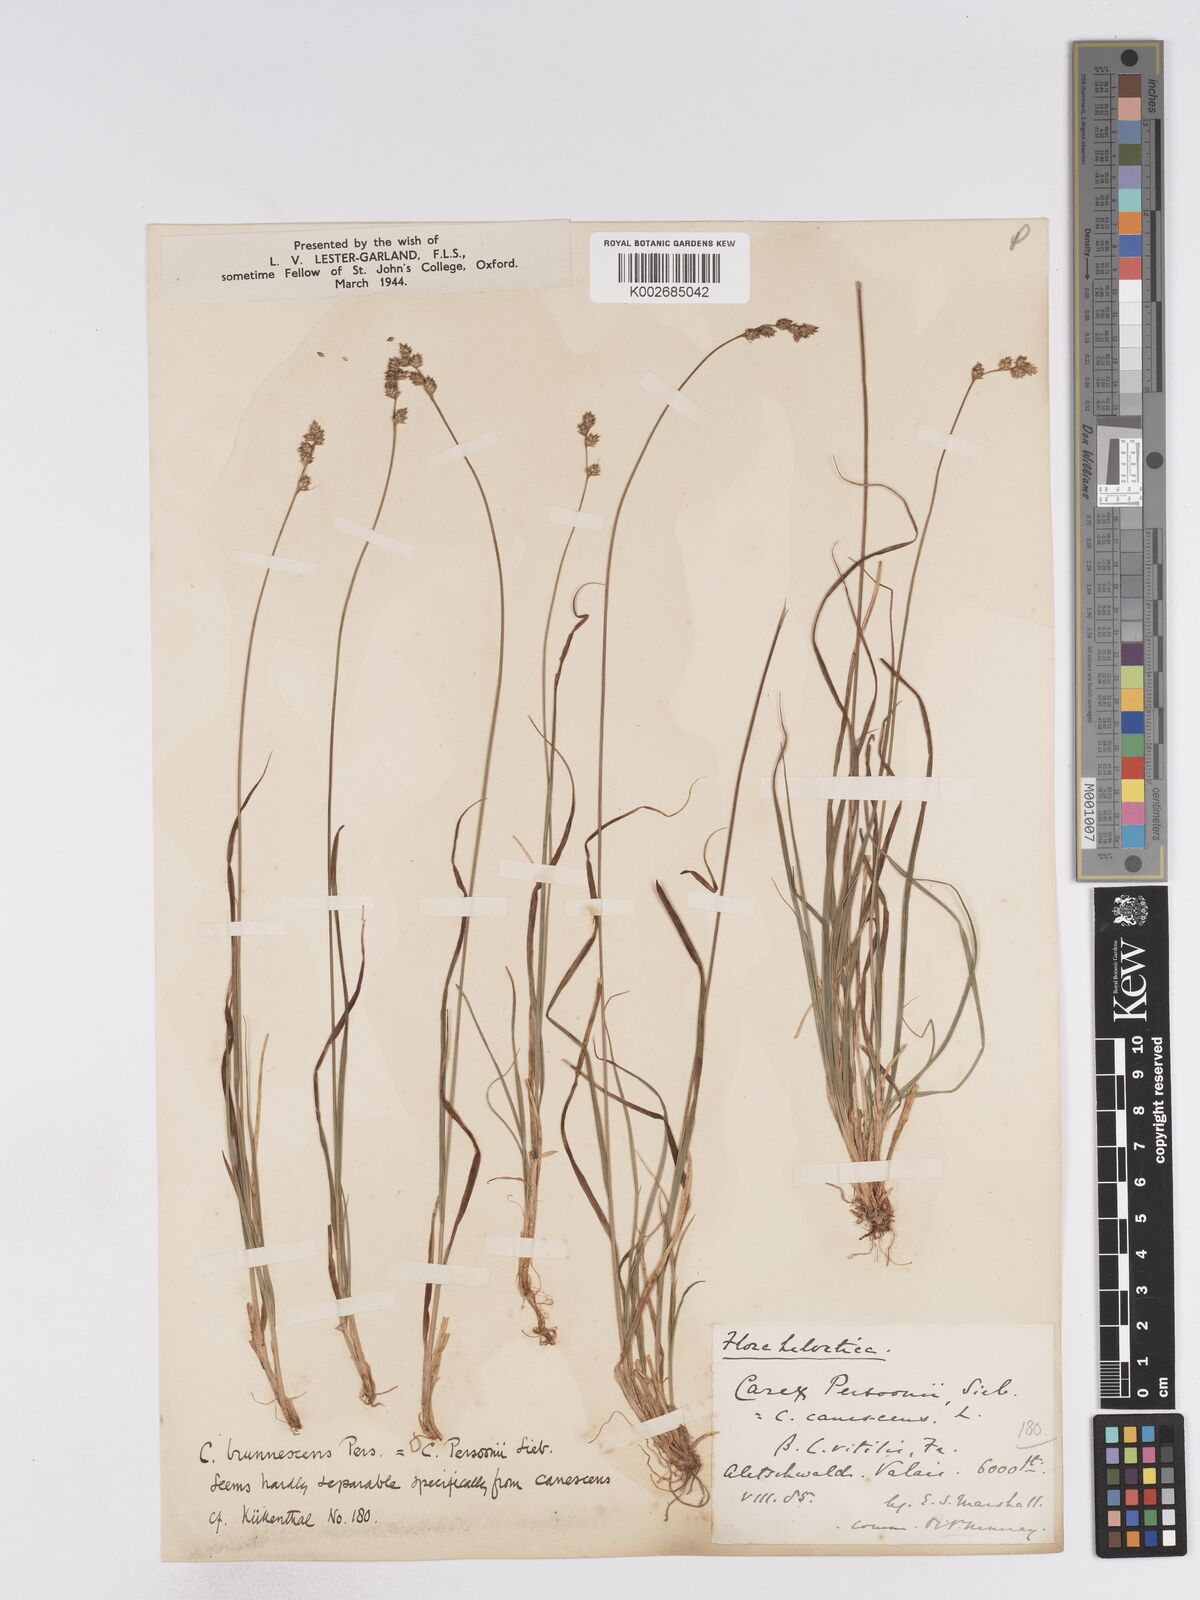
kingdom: Plantae
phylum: Tracheophyta
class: Liliopsida
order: Poales
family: Cyperaceae
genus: Carex
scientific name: Carex brunnescens
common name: Brown sedge
